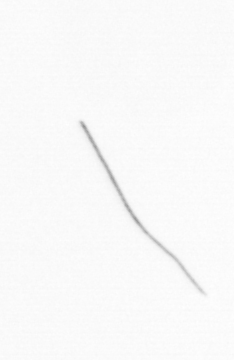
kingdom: Chromista
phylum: Ochrophyta
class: Bacillariophyceae
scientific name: Bacillariophyceae
